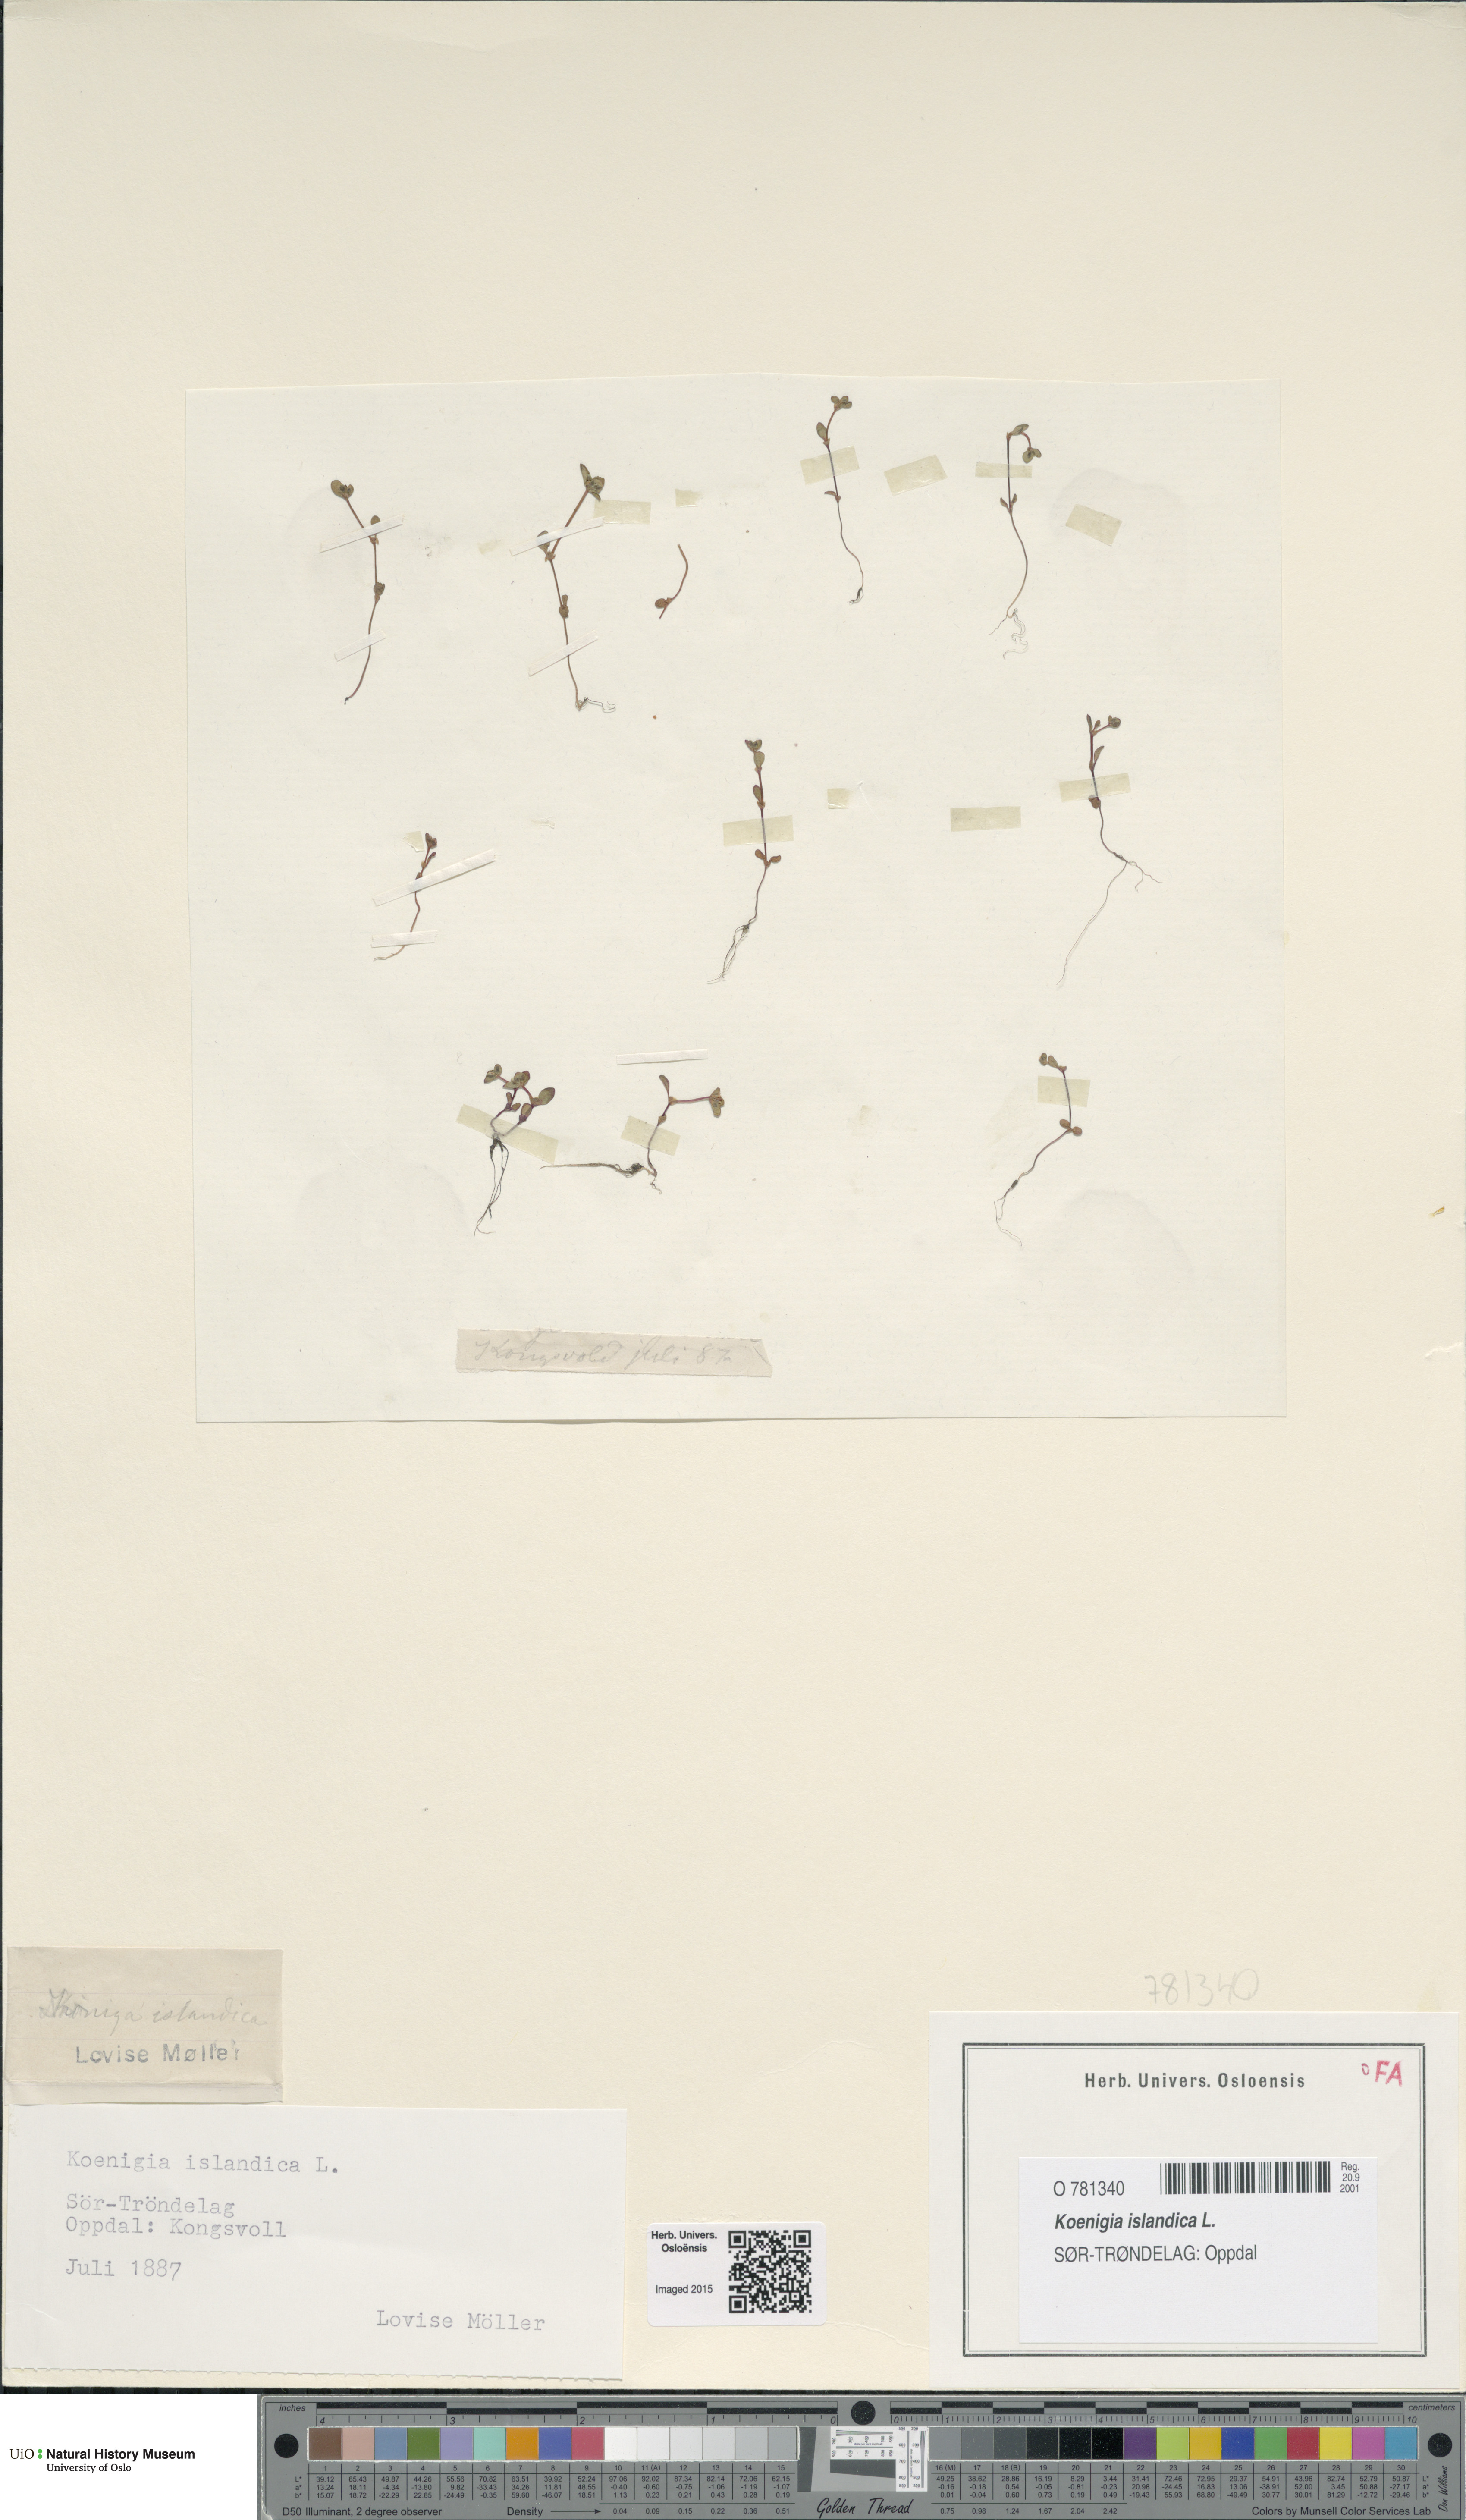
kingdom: Plantae
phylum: Tracheophyta
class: Magnoliopsida
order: Caryophyllales
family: Polygonaceae
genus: Koenigia
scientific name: Koenigia islandica
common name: Iceland-purslane
